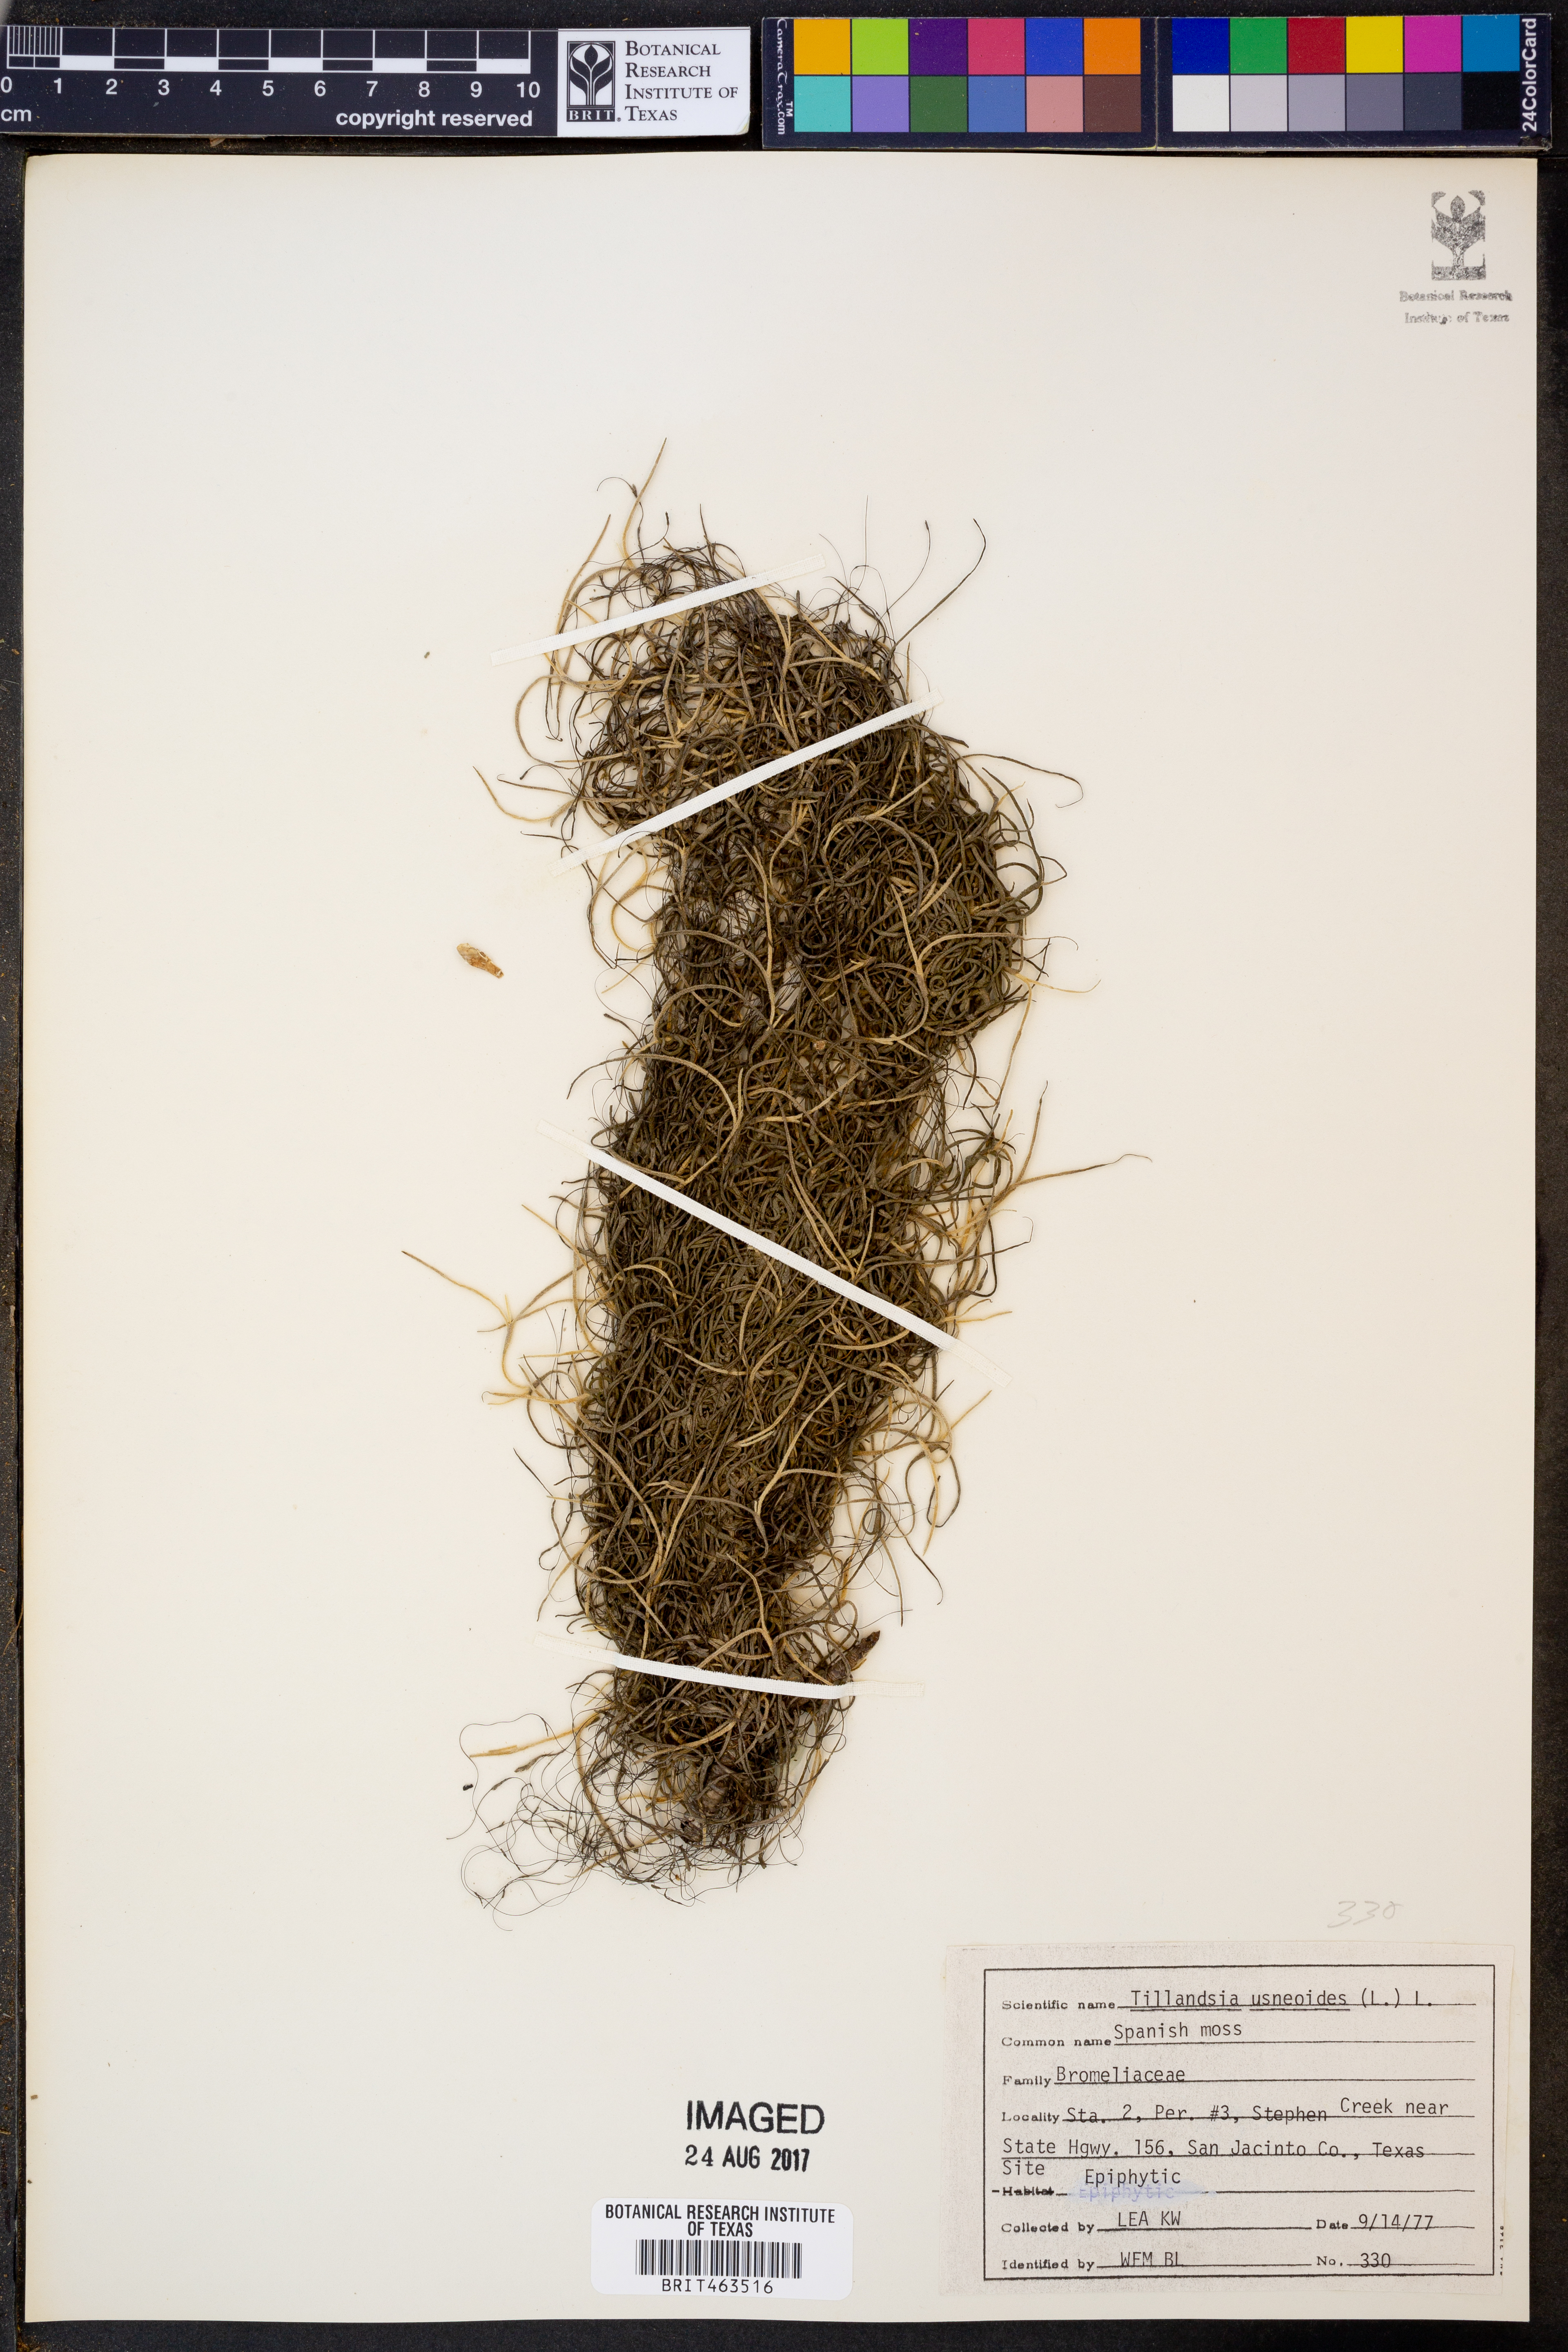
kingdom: Plantae
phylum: Tracheophyta
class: Liliopsida
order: Poales
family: Bromeliaceae
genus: Tillandsia
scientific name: Tillandsia usneoides
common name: Spanish moss
